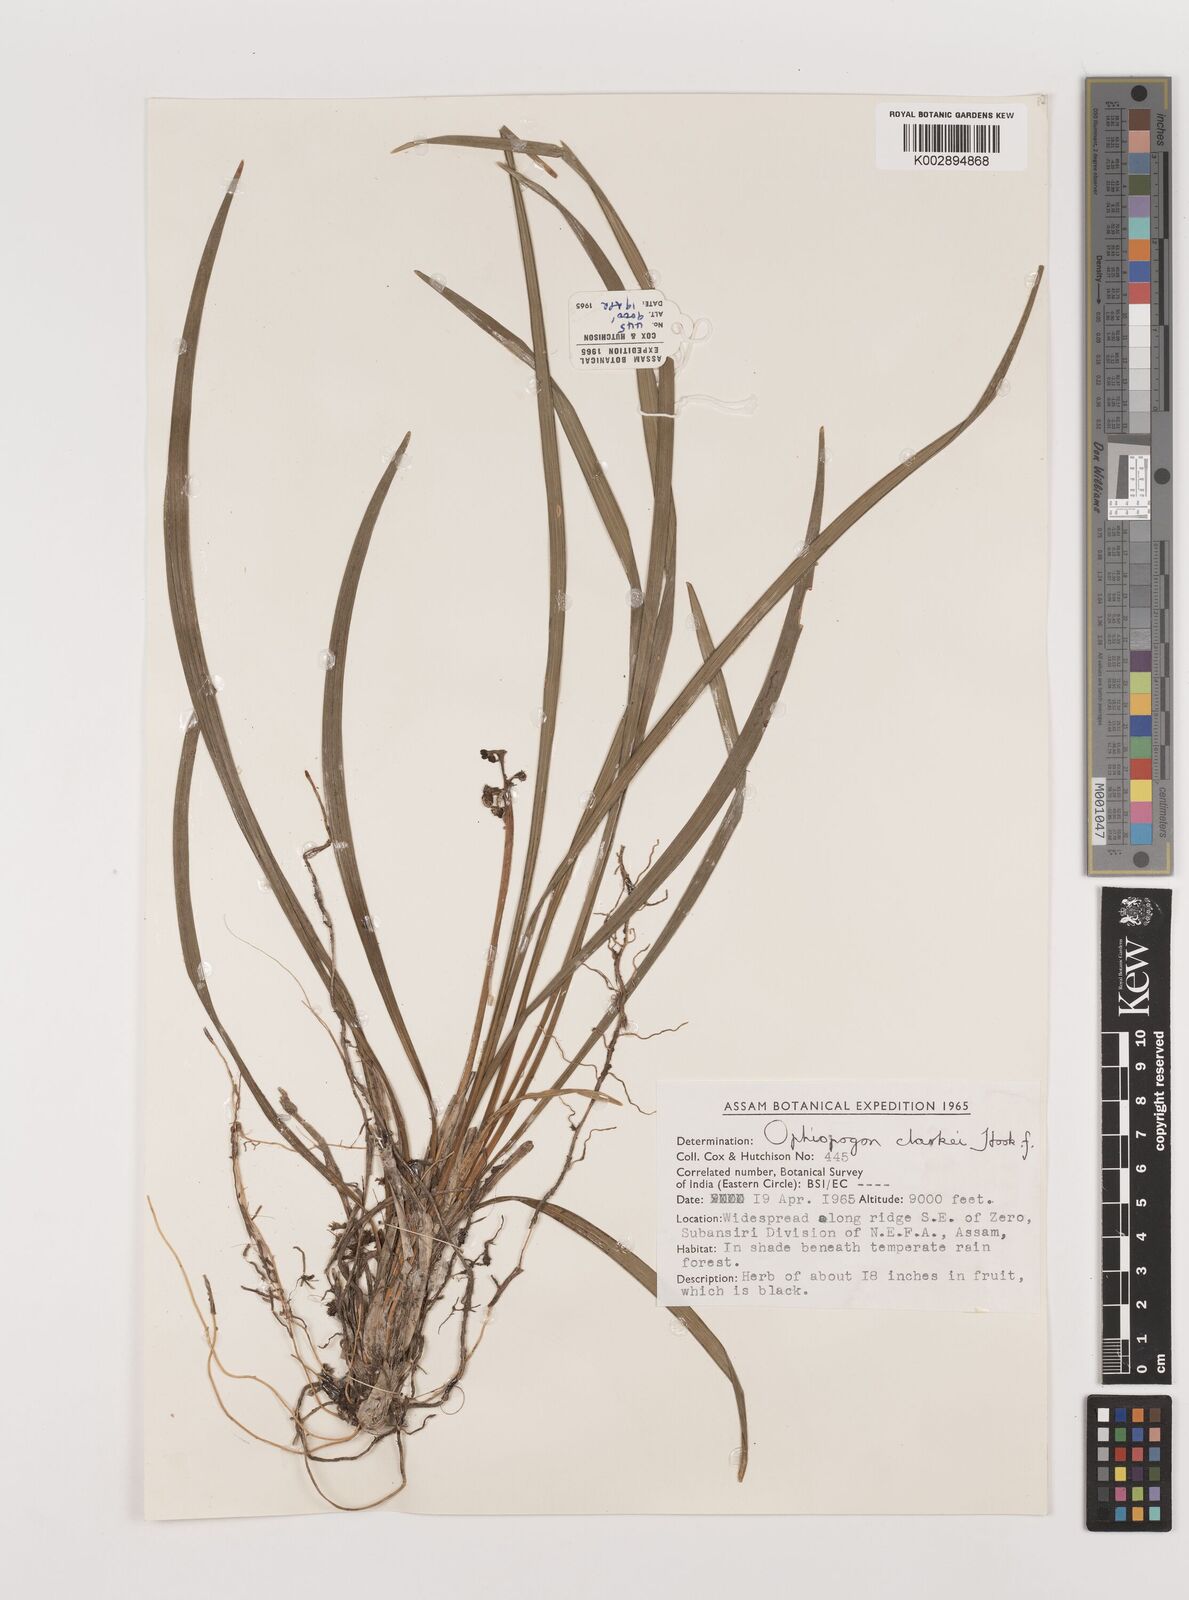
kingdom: Plantae
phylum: Tracheophyta
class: Liliopsida
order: Asparagales
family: Asparagaceae
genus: Ophiopogon
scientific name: Ophiopogon clarkei
